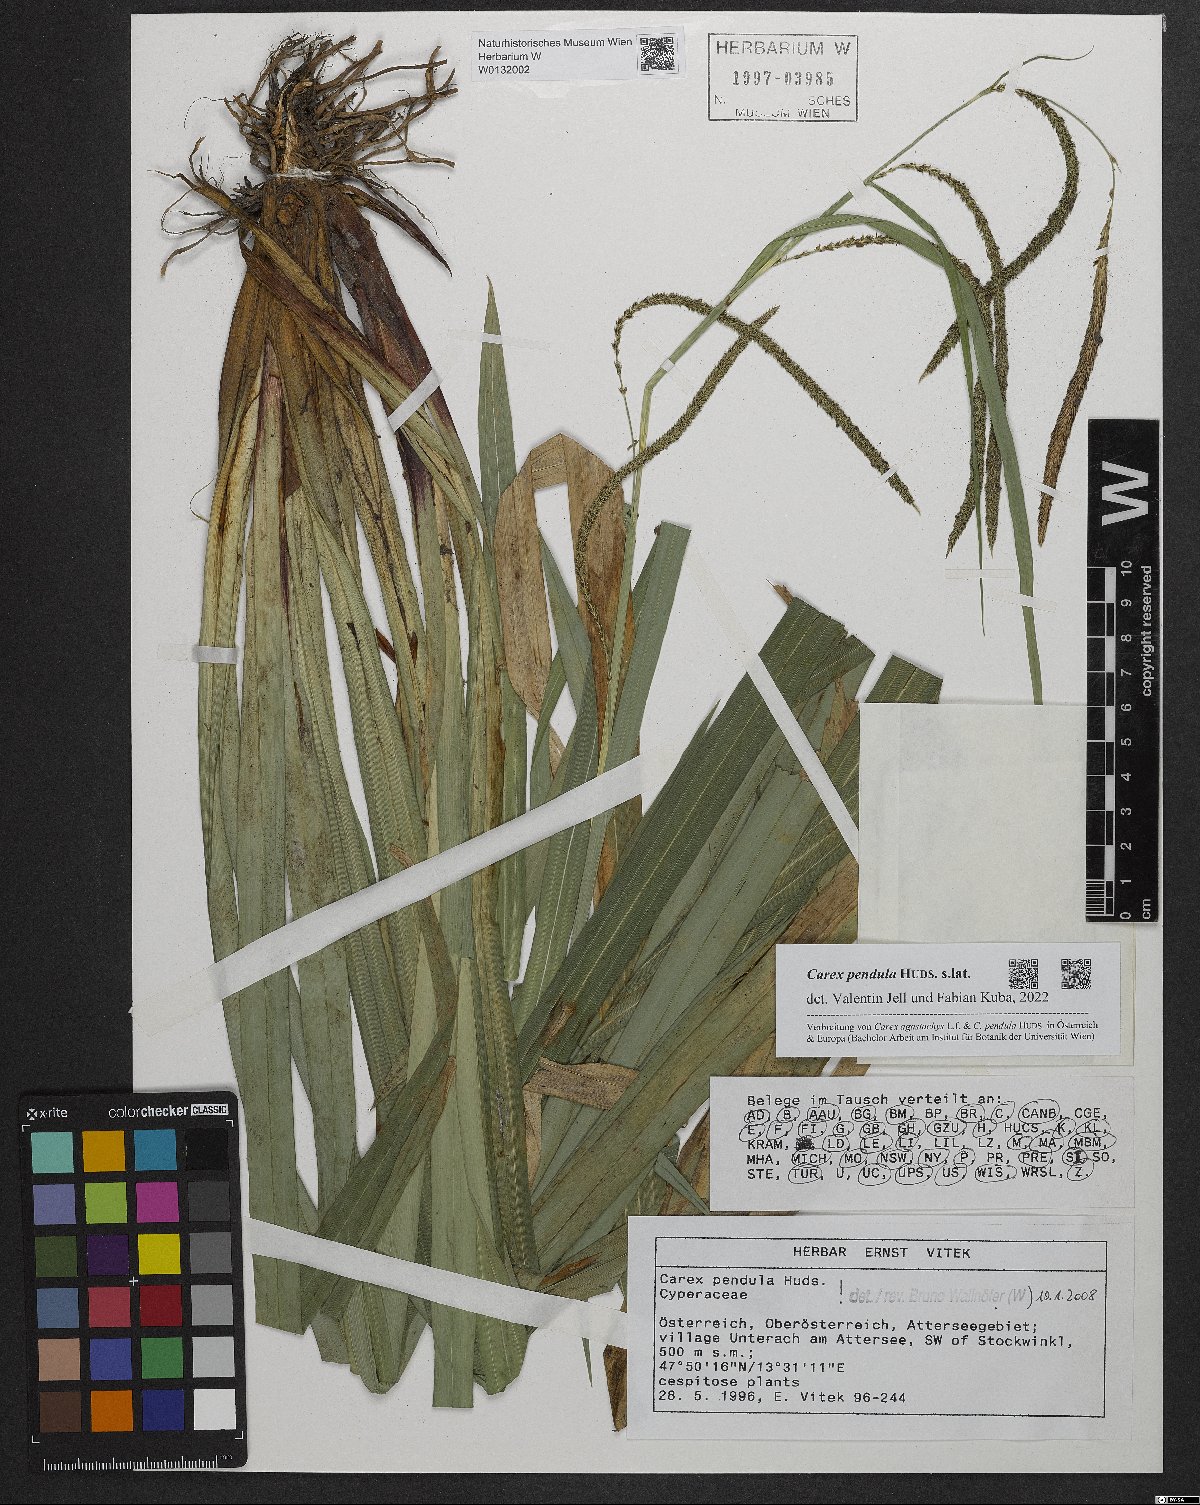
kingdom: Plantae
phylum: Tracheophyta
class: Liliopsida
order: Poales
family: Cyperaceae
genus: Carex
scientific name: Carex pendula
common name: Pendulous sedge
